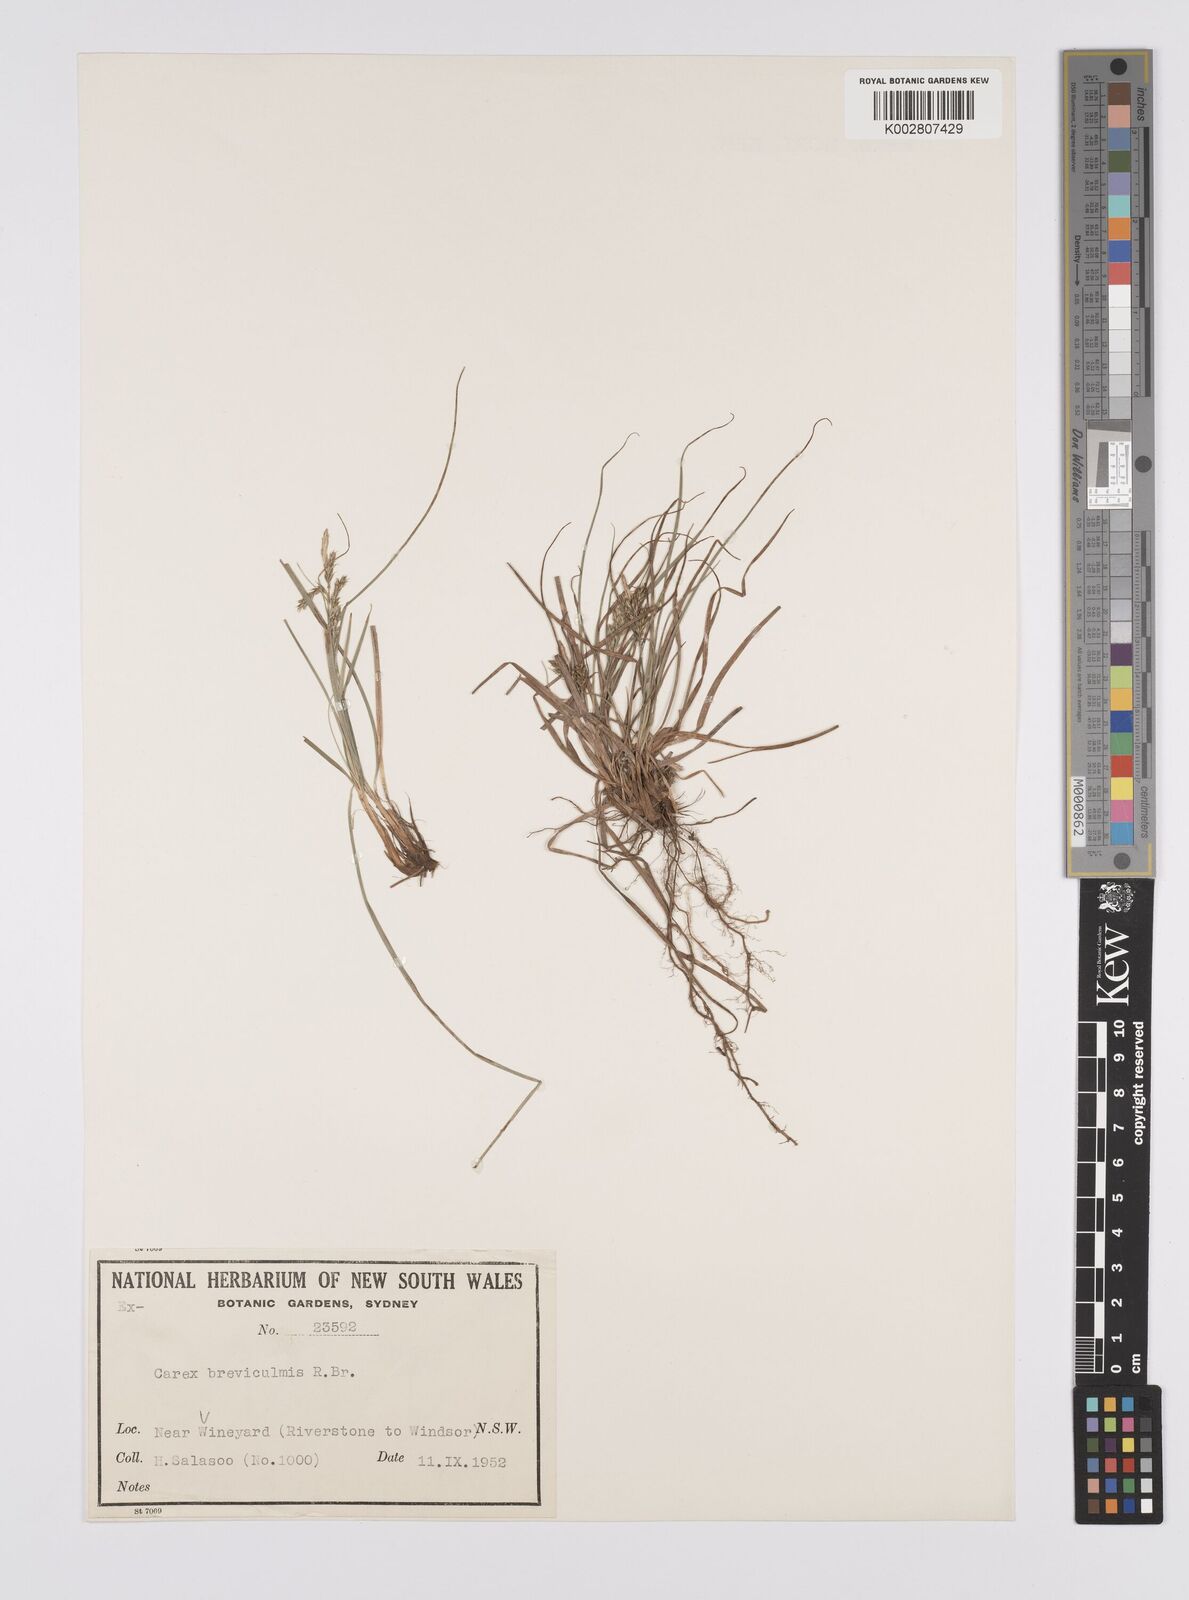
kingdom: Plantae
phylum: Tracheophyta
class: Liliopsida
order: Poales
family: Cyperaceae
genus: Carex
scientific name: Carex breviculmis
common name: Asian shortstem sedge
